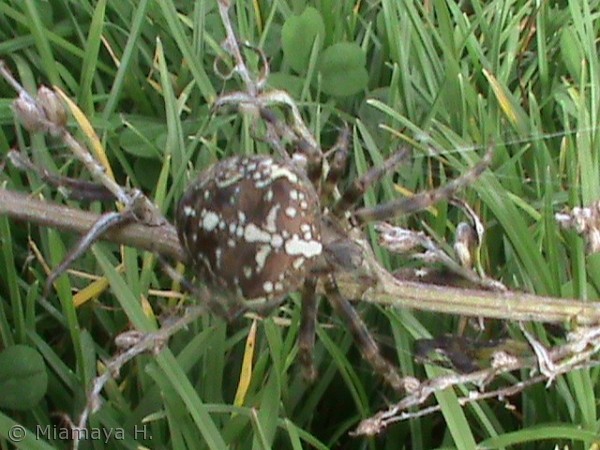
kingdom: Animalia
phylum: Arthropoda
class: Arachnida
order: Araneae
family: Araneidae
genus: Araneus
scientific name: Araneus diadematus
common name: Korsedderkop
